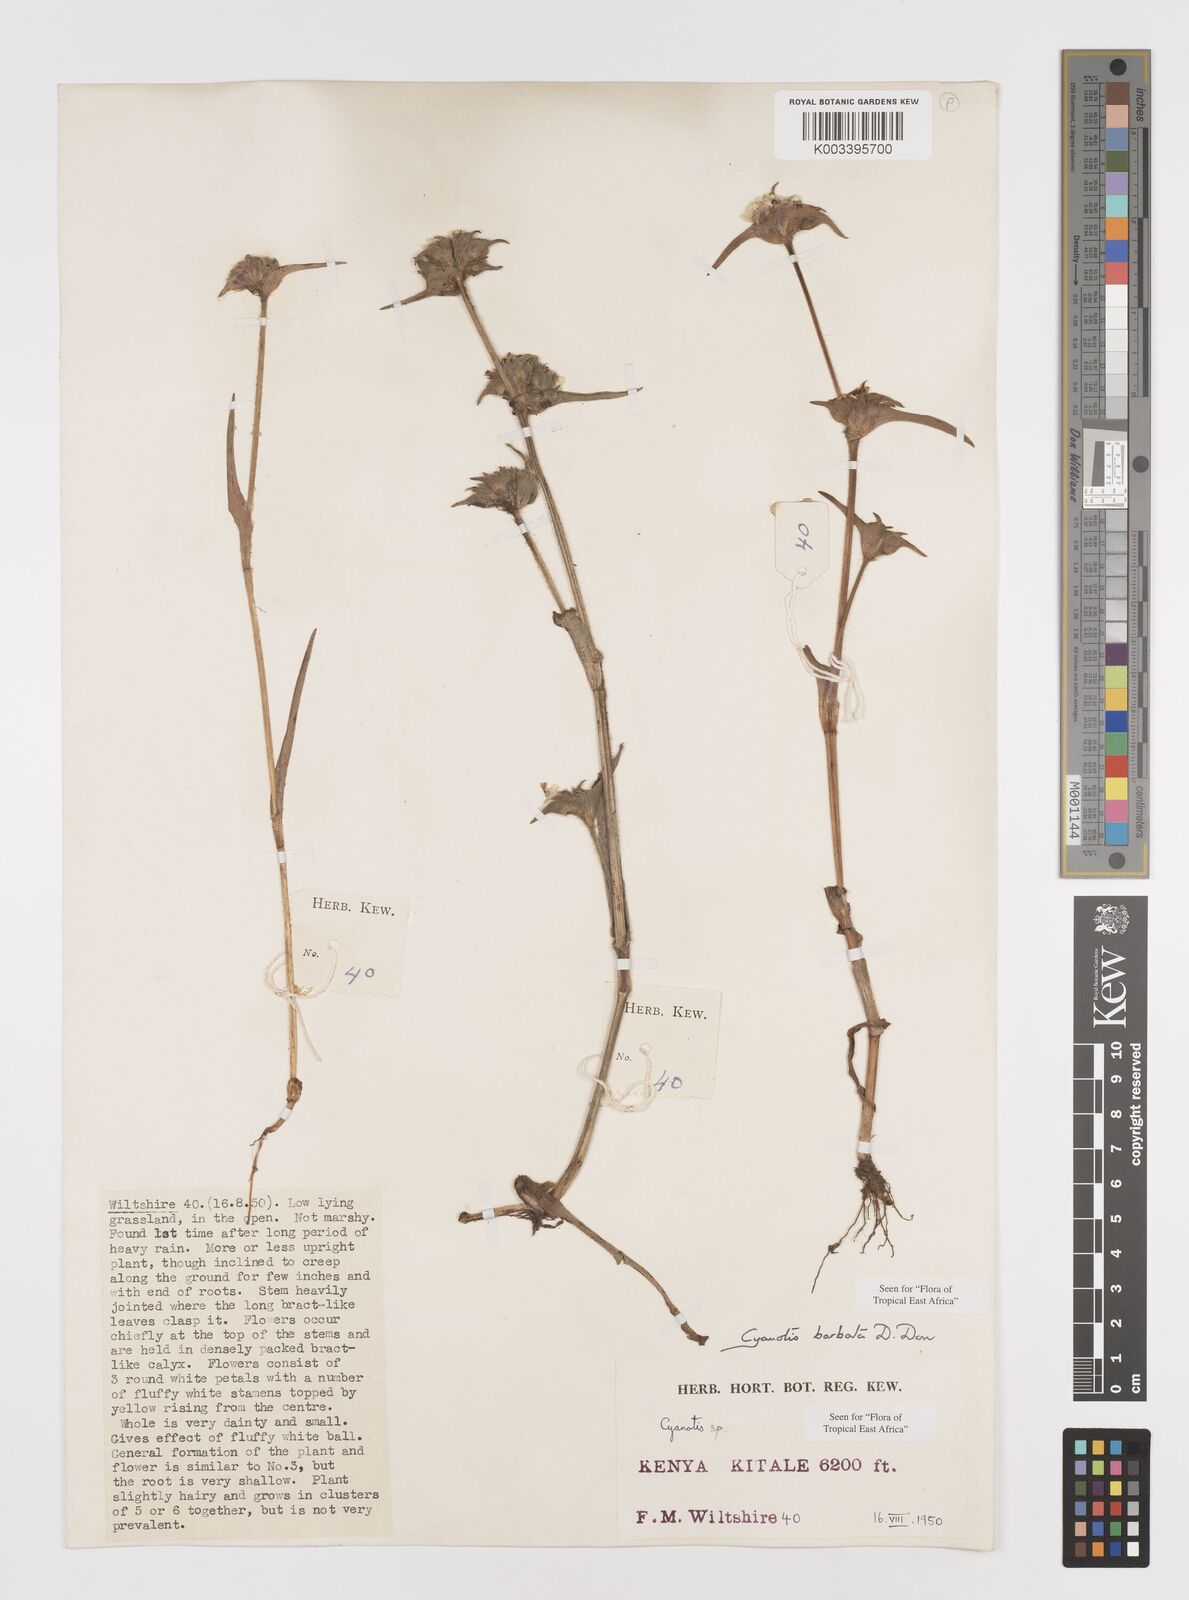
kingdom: Plantae
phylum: Tracheophyta
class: Liliopsida
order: Commelinales
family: Commelinaceae
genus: Cyanotis
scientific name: Cyanotis vaga
